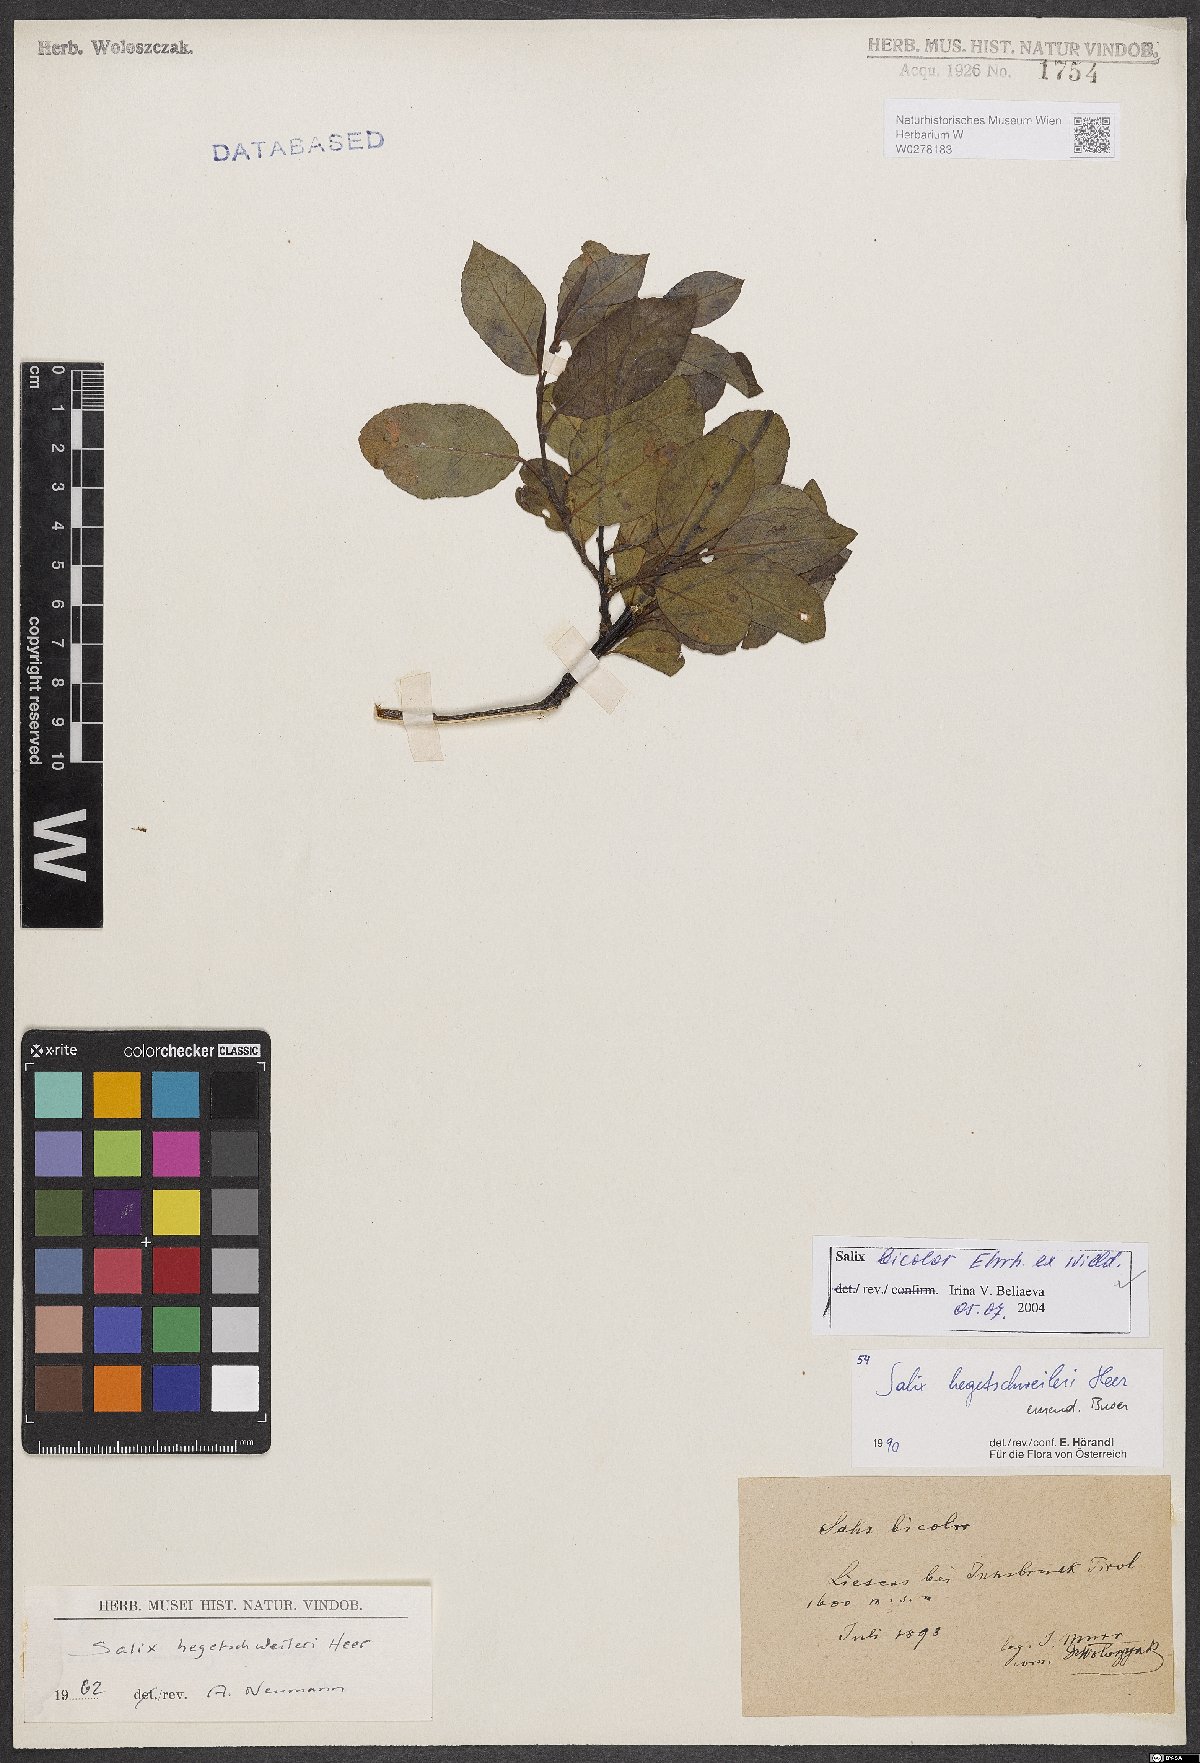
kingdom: Plantae
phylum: Tracheophyta
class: Magnoliopsida
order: Malpighiales
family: Salicaceae
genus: Salix
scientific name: Salix bicolor
